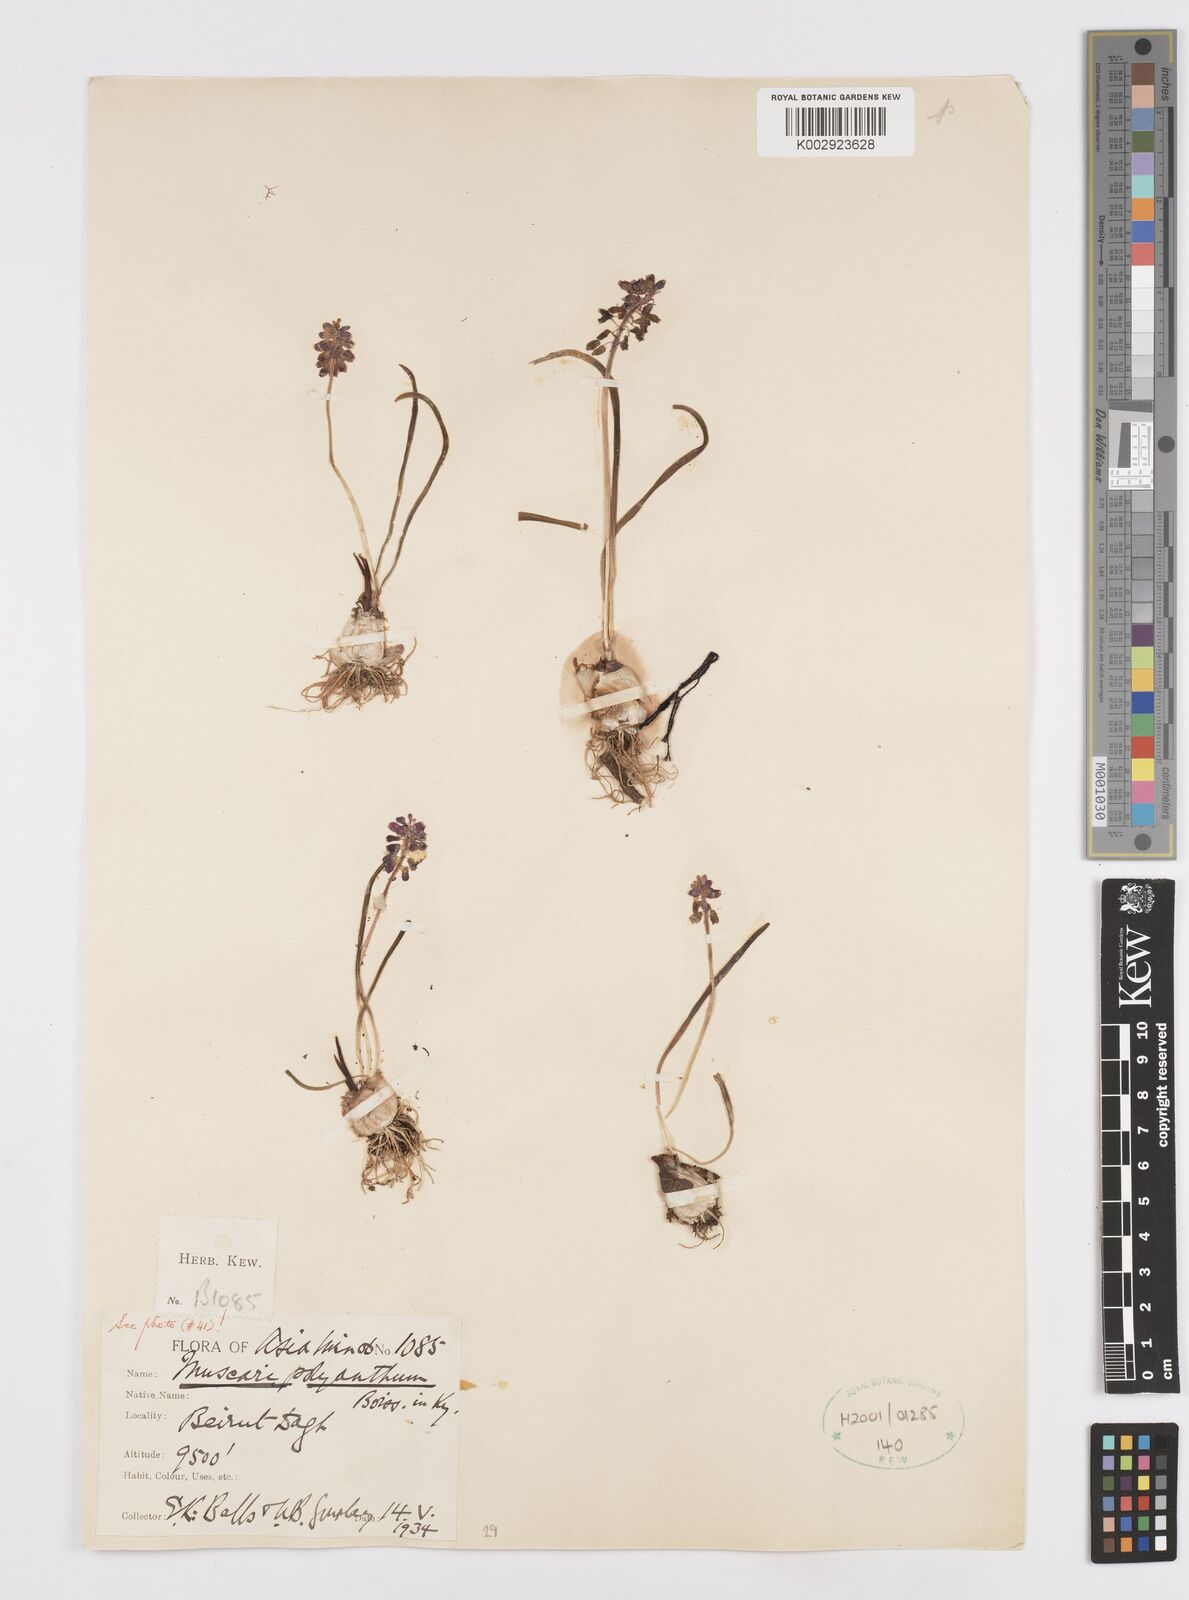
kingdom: Plantae
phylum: Tracheophyta
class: Liliopsida
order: Asparagales
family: Asparagaceae
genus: Muscari
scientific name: Muscari armeniacum
